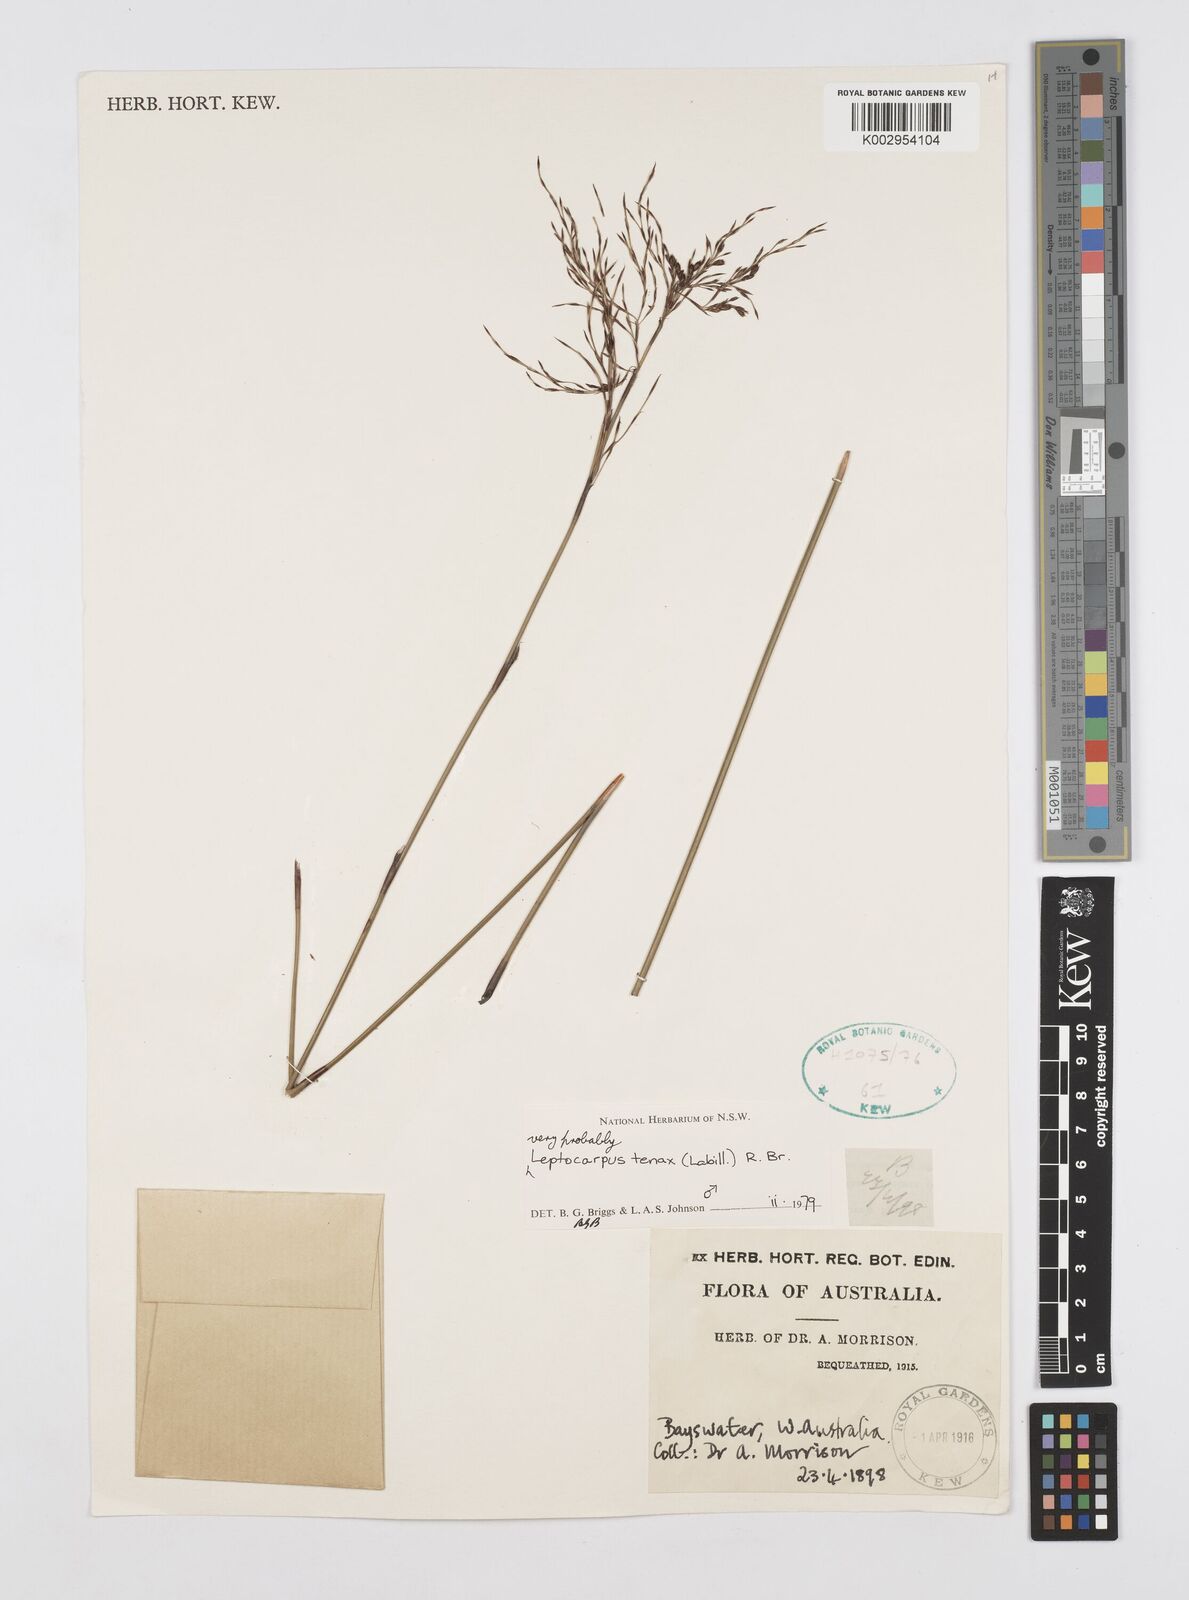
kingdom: Plantae
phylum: Tracheophyta
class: Liliopsida
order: Poales
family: Restionaceae
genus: Leptocarpus
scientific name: Leptocarpus tenax
